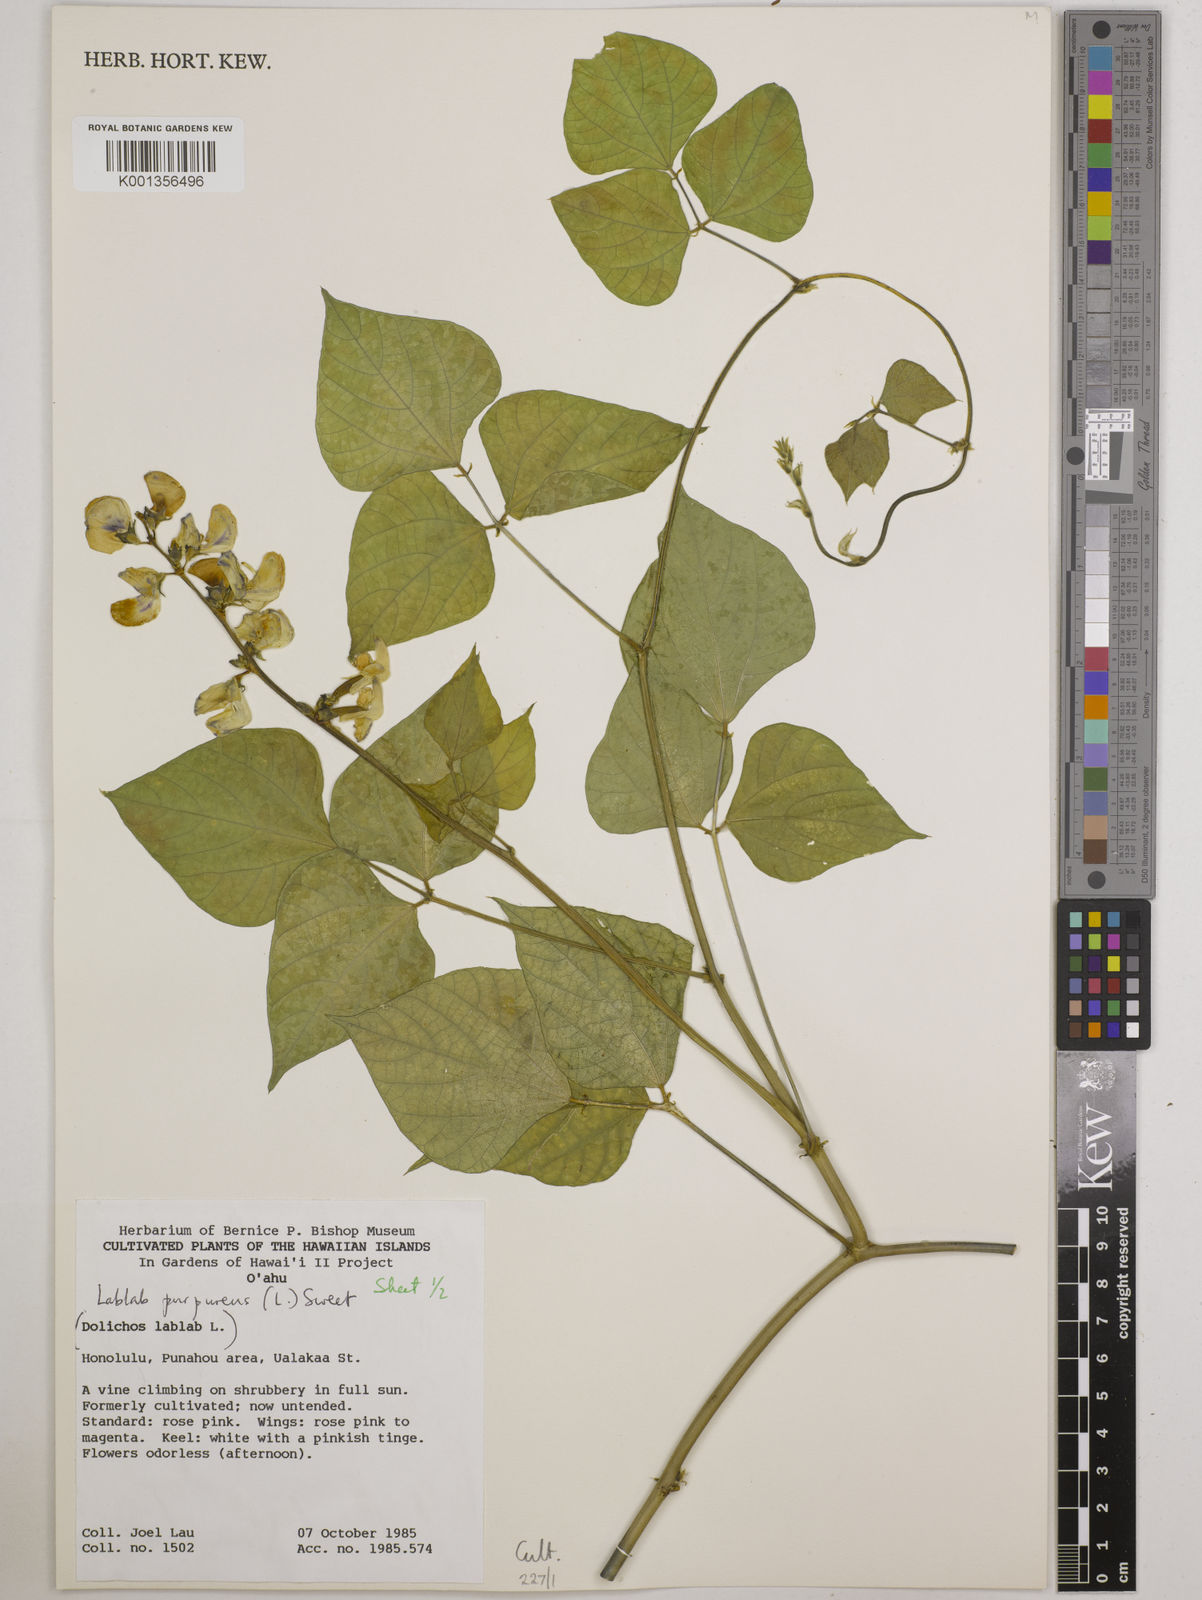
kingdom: Plantae
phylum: Tracheophyta
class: Magnoliopsida
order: Fabales
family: Fabaceae
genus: Lablab
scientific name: Lablab purpureus
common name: Lablab-bean
